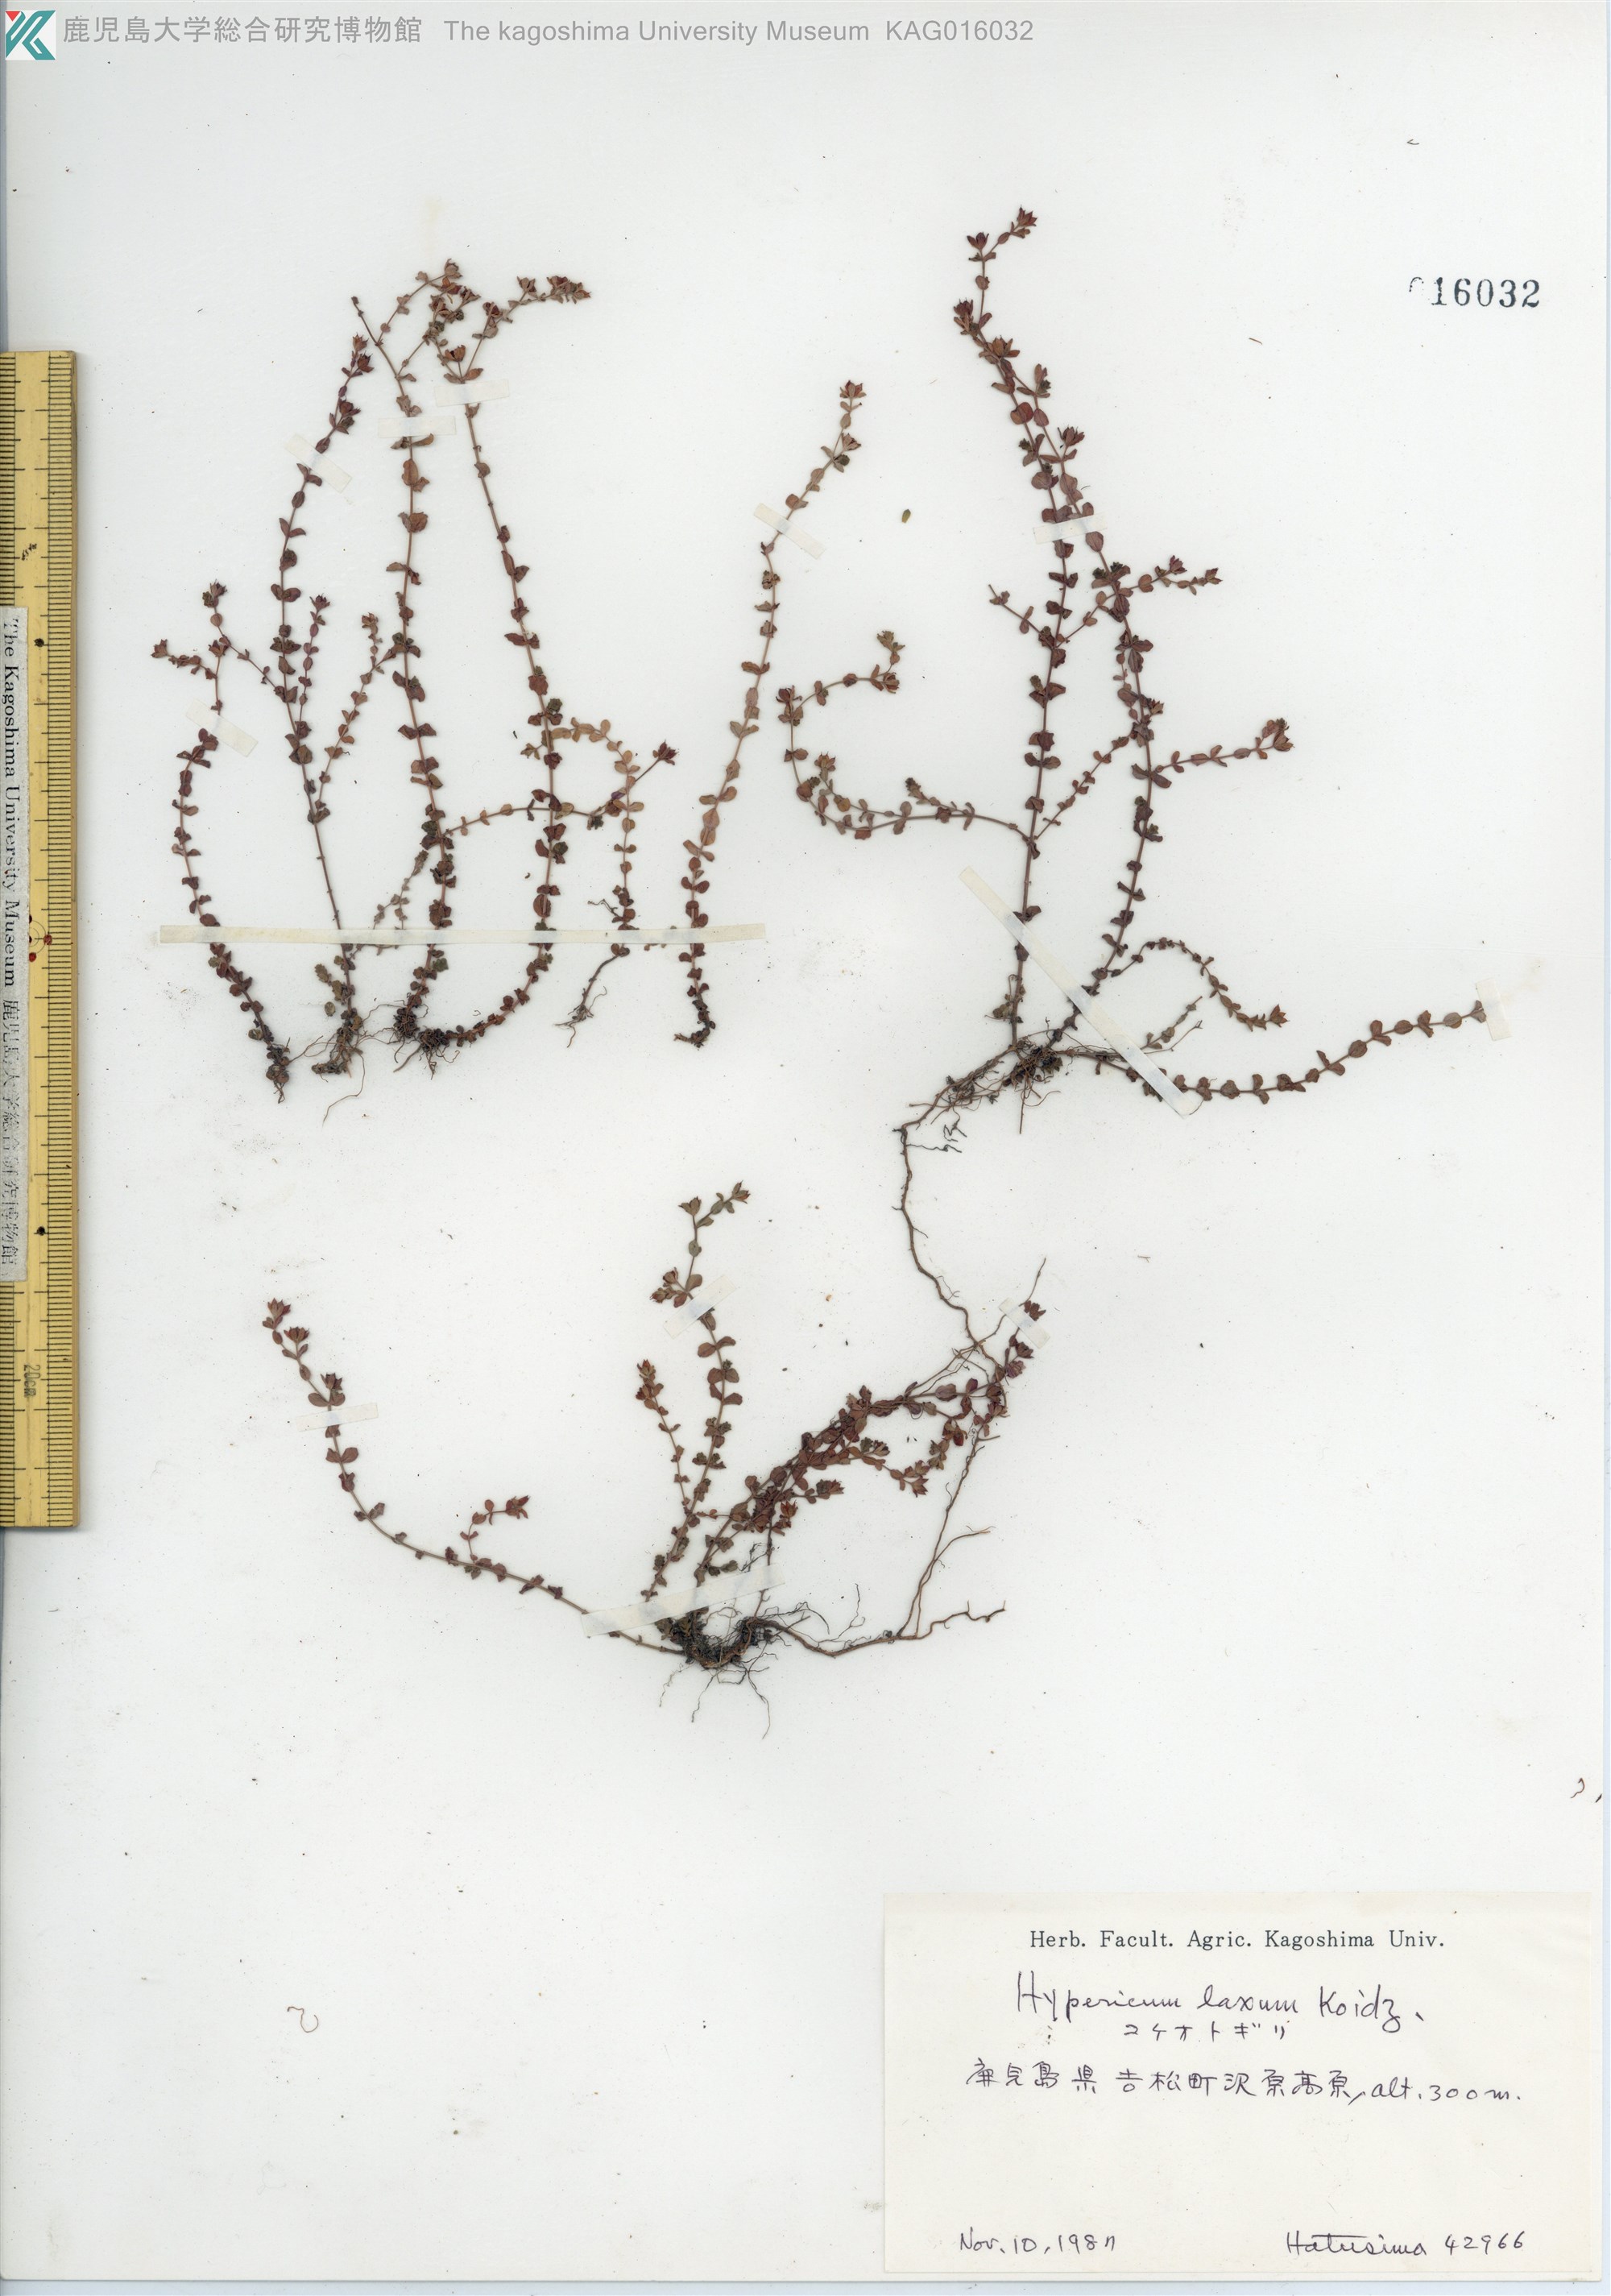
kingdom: Plantae
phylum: Tracheophyta
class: Magnoliopsida
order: Malpighiales
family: Hypericaceae
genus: Hypericum
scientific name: Hypericum japonicum
